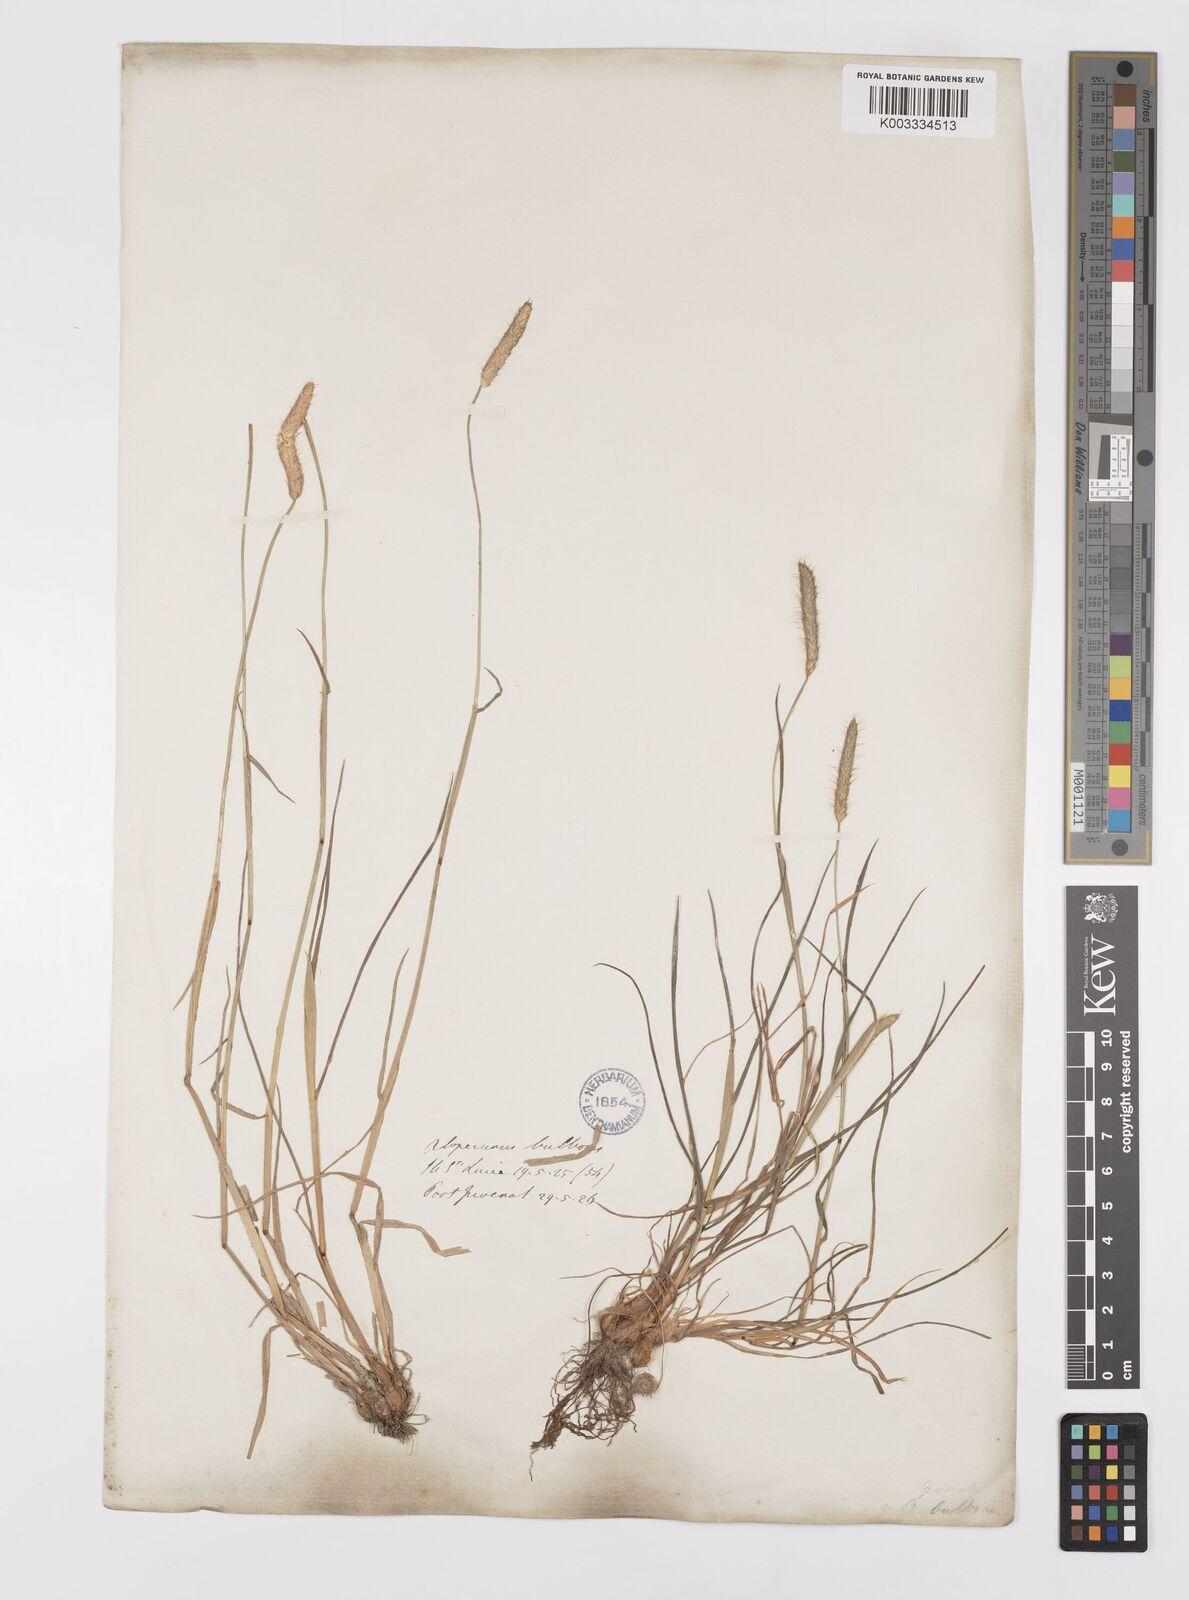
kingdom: Plantae
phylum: Tracheophyta
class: Liliopsida
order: Poales
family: Poaceae
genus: Alopecurus
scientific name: Alopecurus bulbosus
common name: Bulbous foxtail
